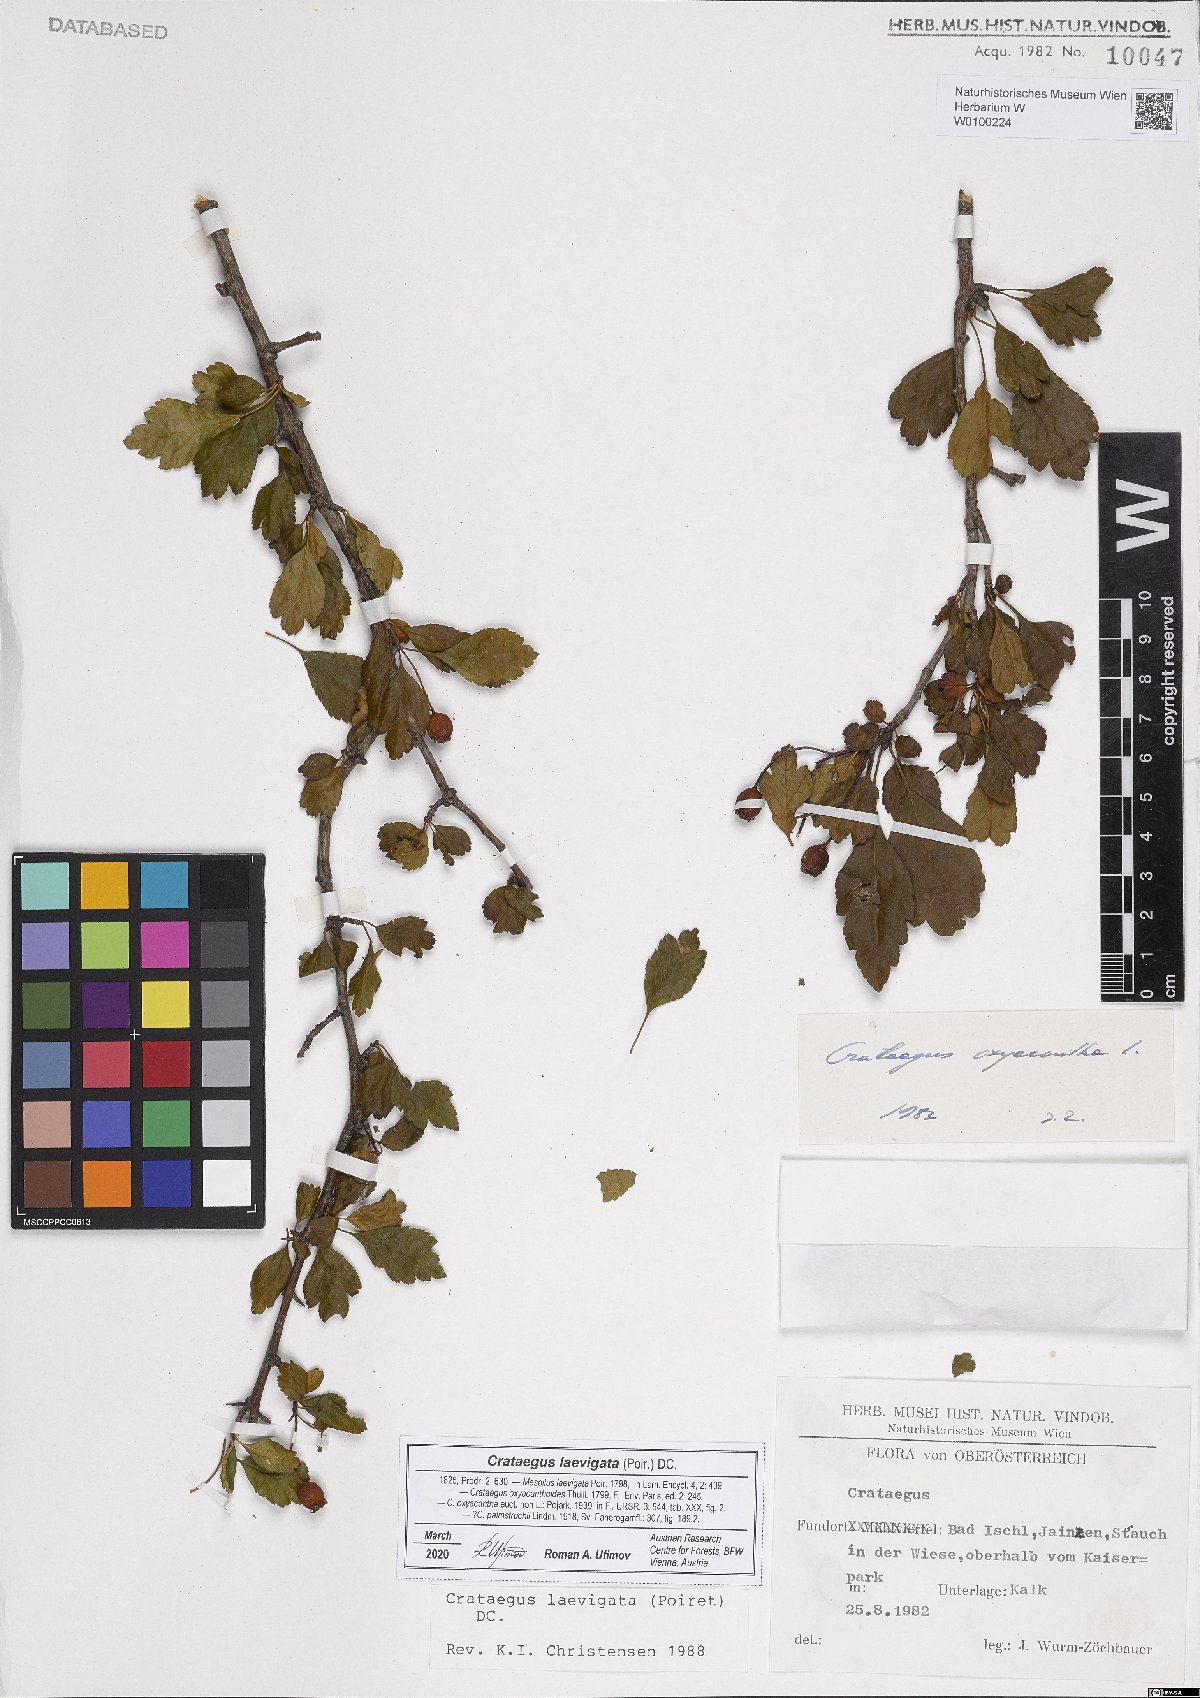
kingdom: Plantae
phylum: Tracheophyta
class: Magnoliopsida
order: Rosales
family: Rosaceae
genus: Crataegus
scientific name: Crataegus laevigata
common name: Midland hawthorn
